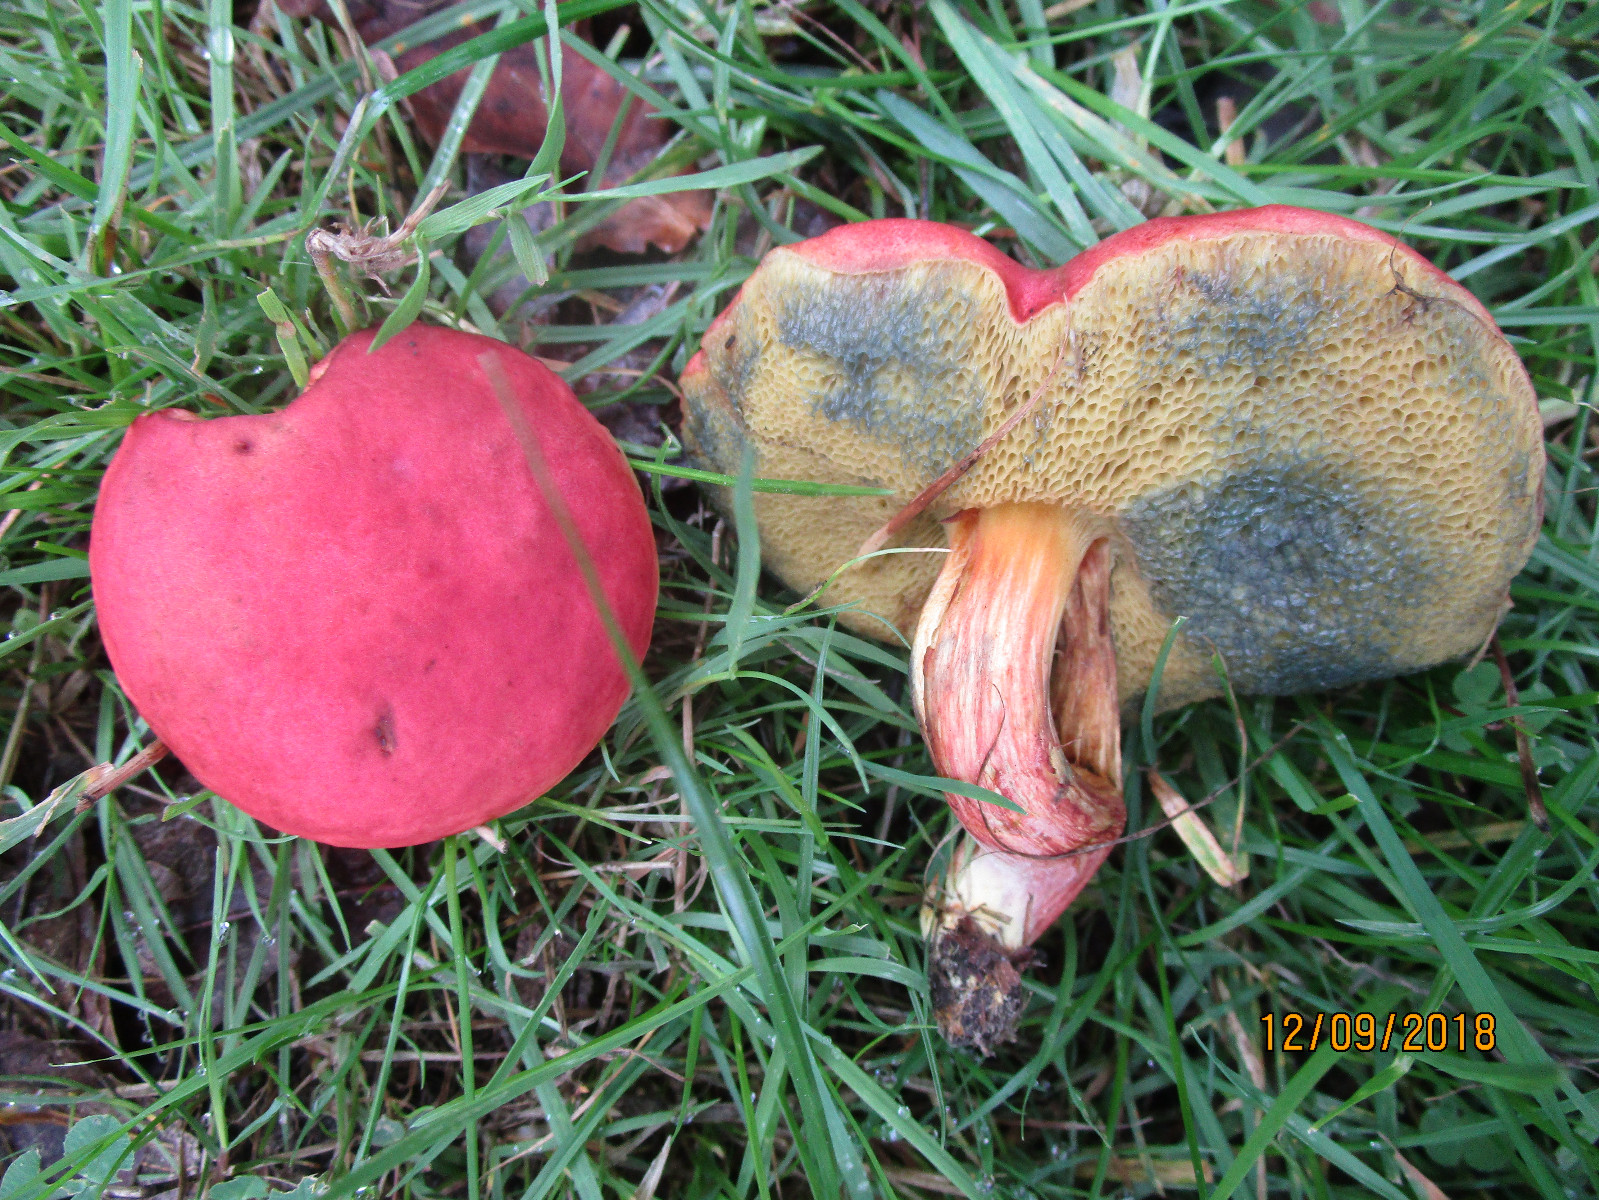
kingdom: Fungi
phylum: Basidiomycota
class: Agaricomycetes
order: Boletales
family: Boletaceae
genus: Hortiboletus
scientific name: Hortiboletus rubellus
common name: blodrød rørhat
